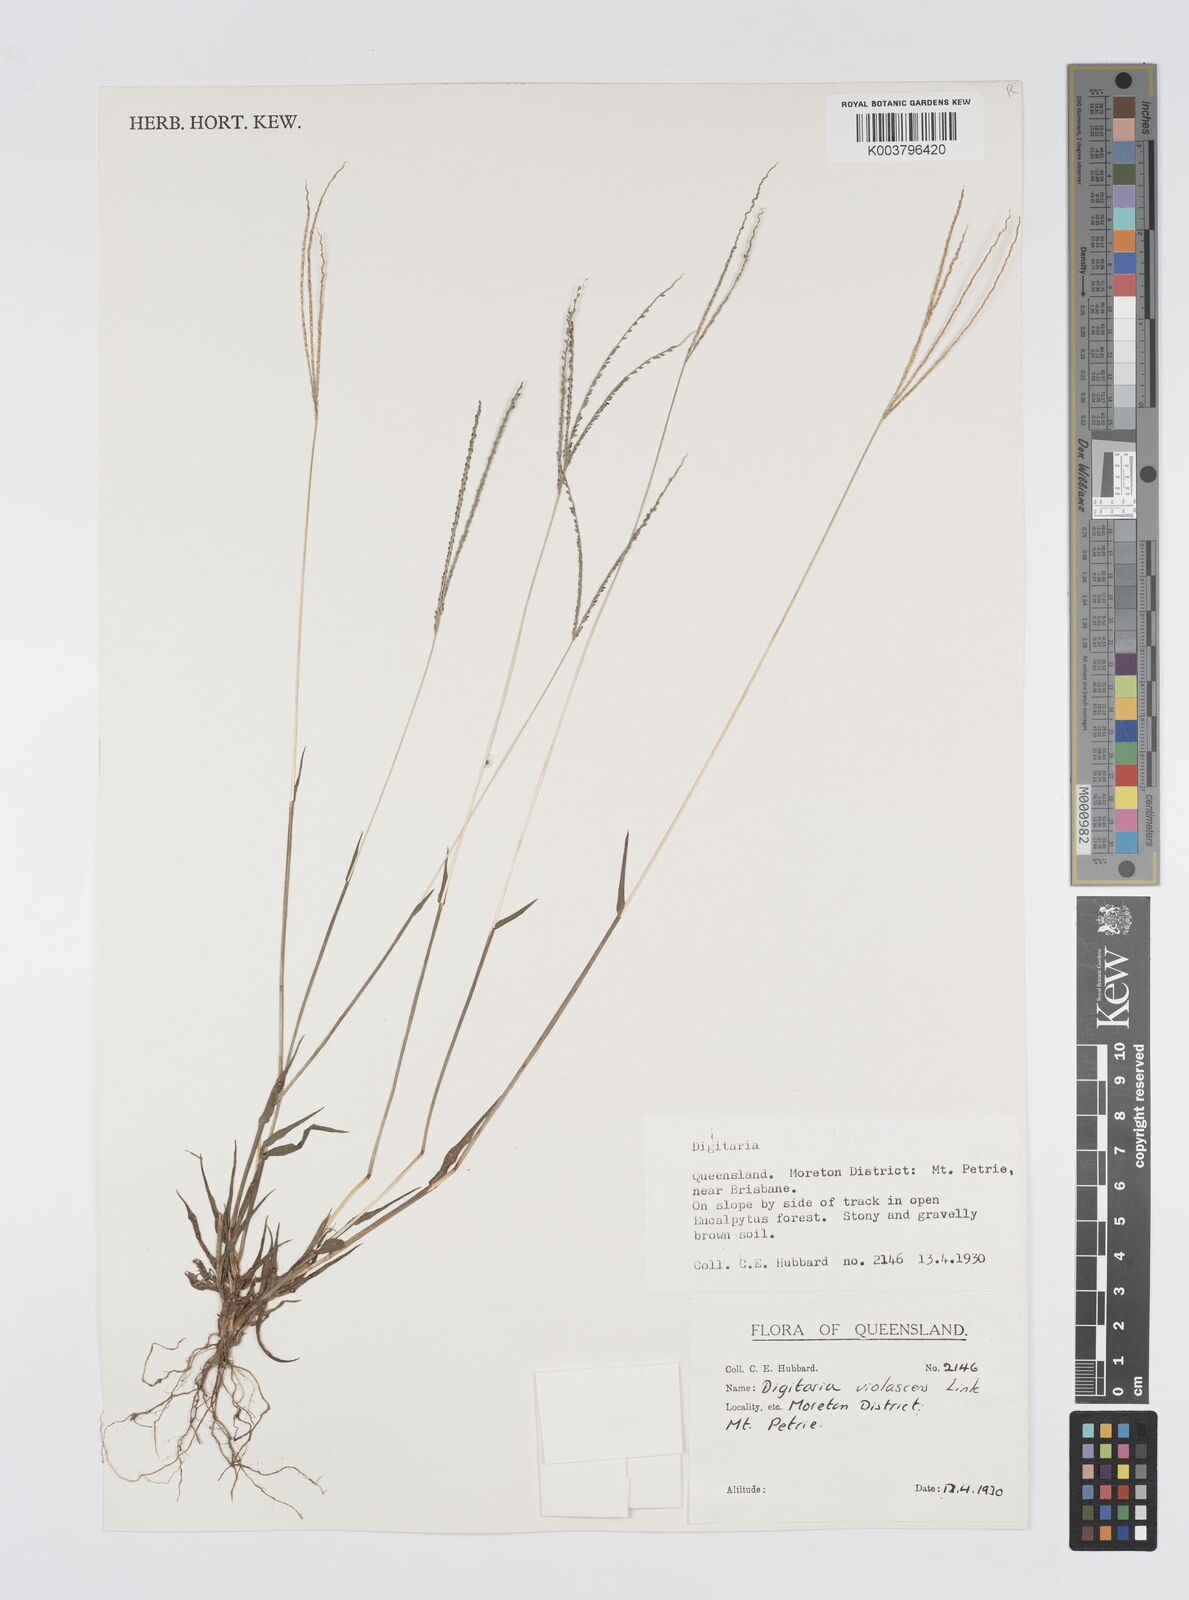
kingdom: Plantae
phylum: Tracheophyta
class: Liliopsida
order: Poales
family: Poaceae
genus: Digitaria
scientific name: Digitaria violascens
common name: Violet crabgrass
